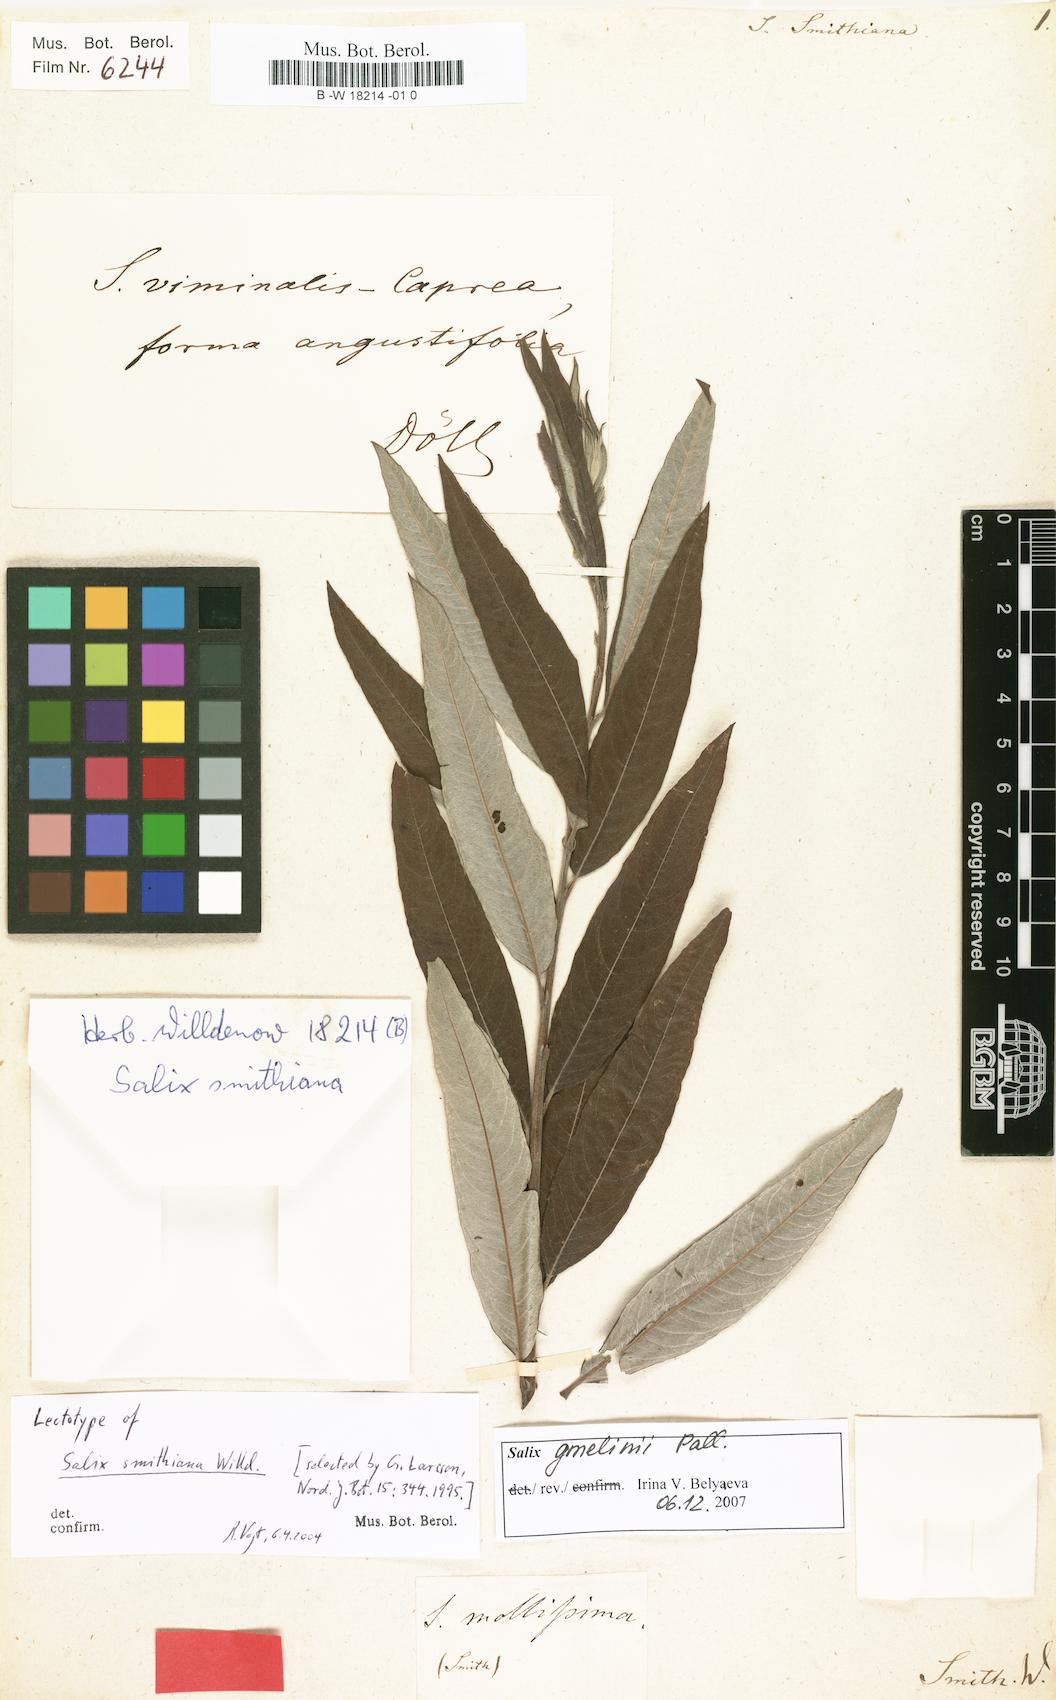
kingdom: Plantae
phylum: Tracheophyta
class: Magnoliopsida
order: Malpighiales
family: Salicaceae
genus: Salix
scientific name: Salix smithiana
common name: Silky-leaved osier
